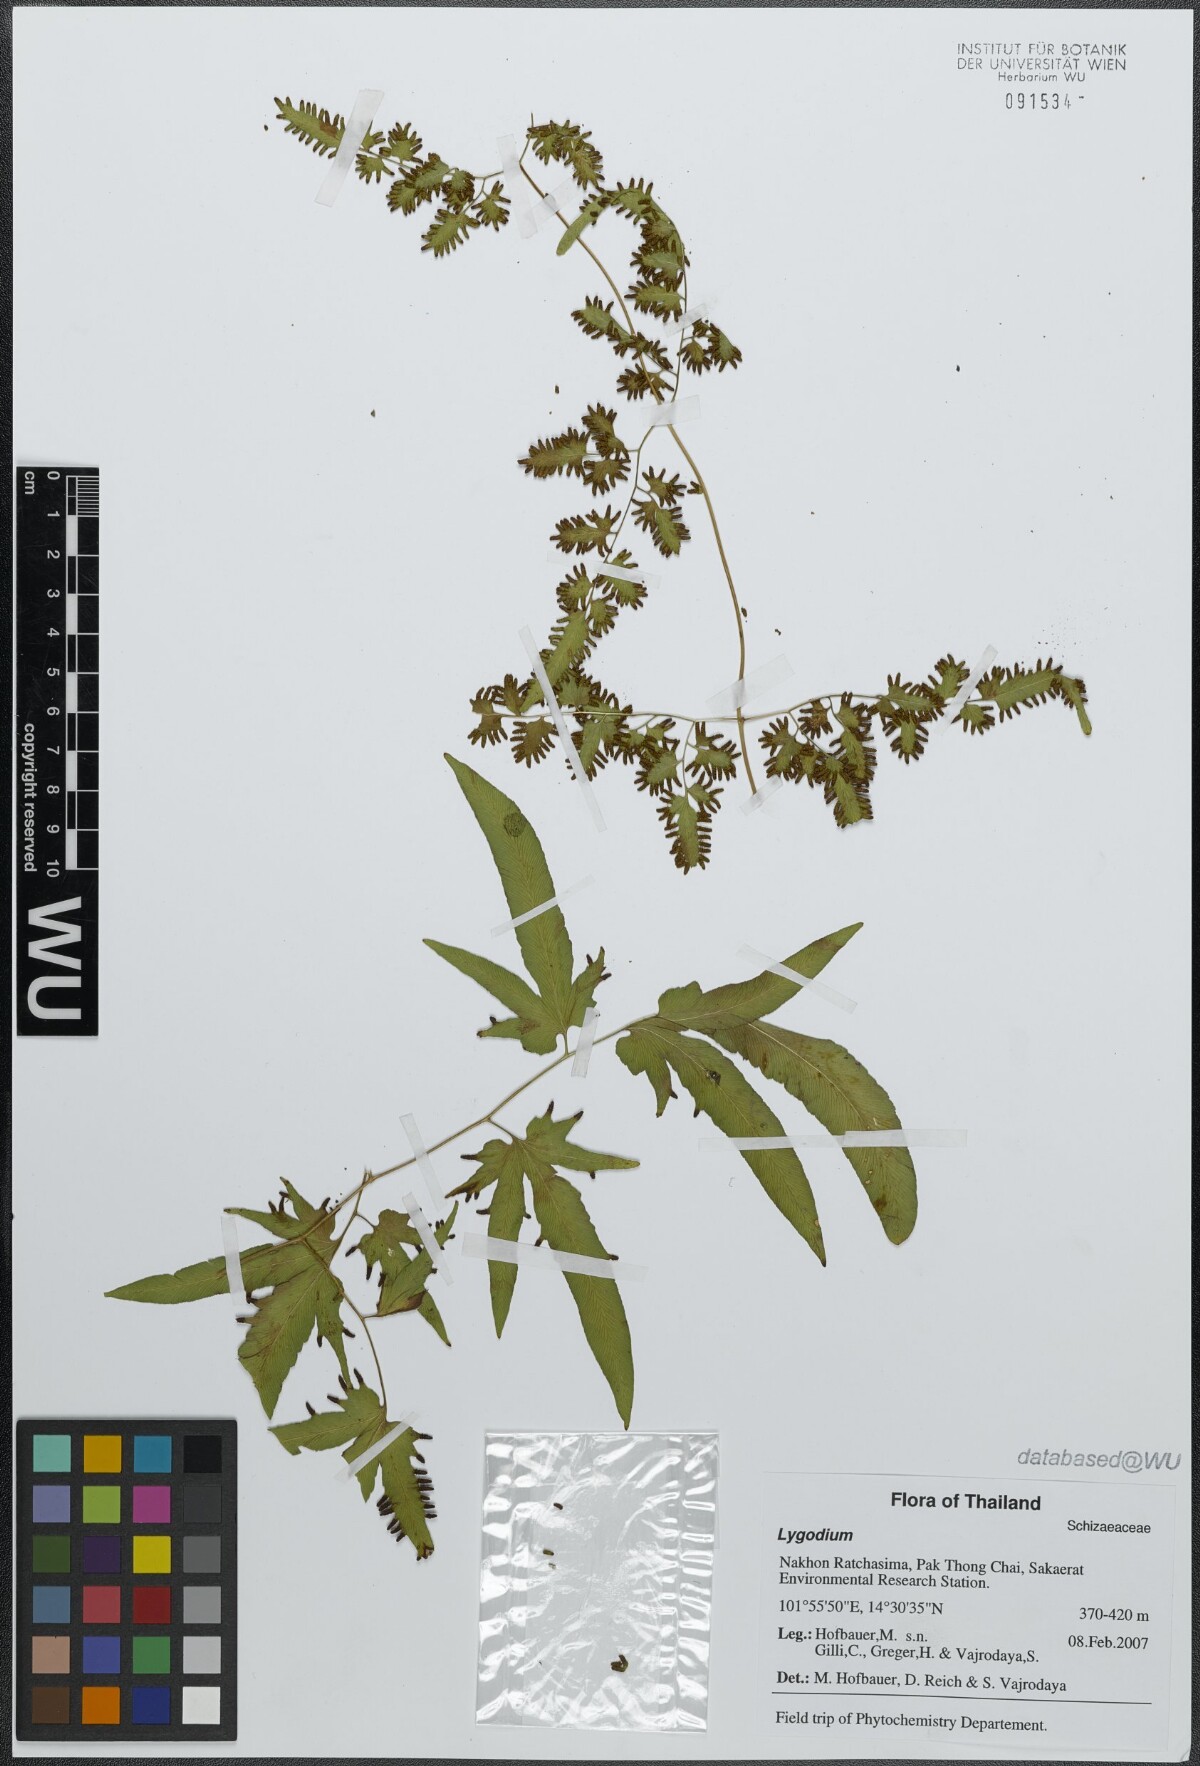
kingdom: Plantae
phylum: Tracheophyta
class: Polypodiopsida
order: Schizaeales
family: Lygodiaceae
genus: Lygodium
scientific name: Lygodium
